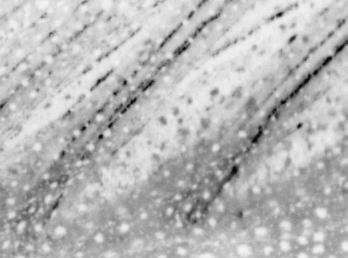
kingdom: Animalia
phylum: Chordata
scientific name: Chordata
